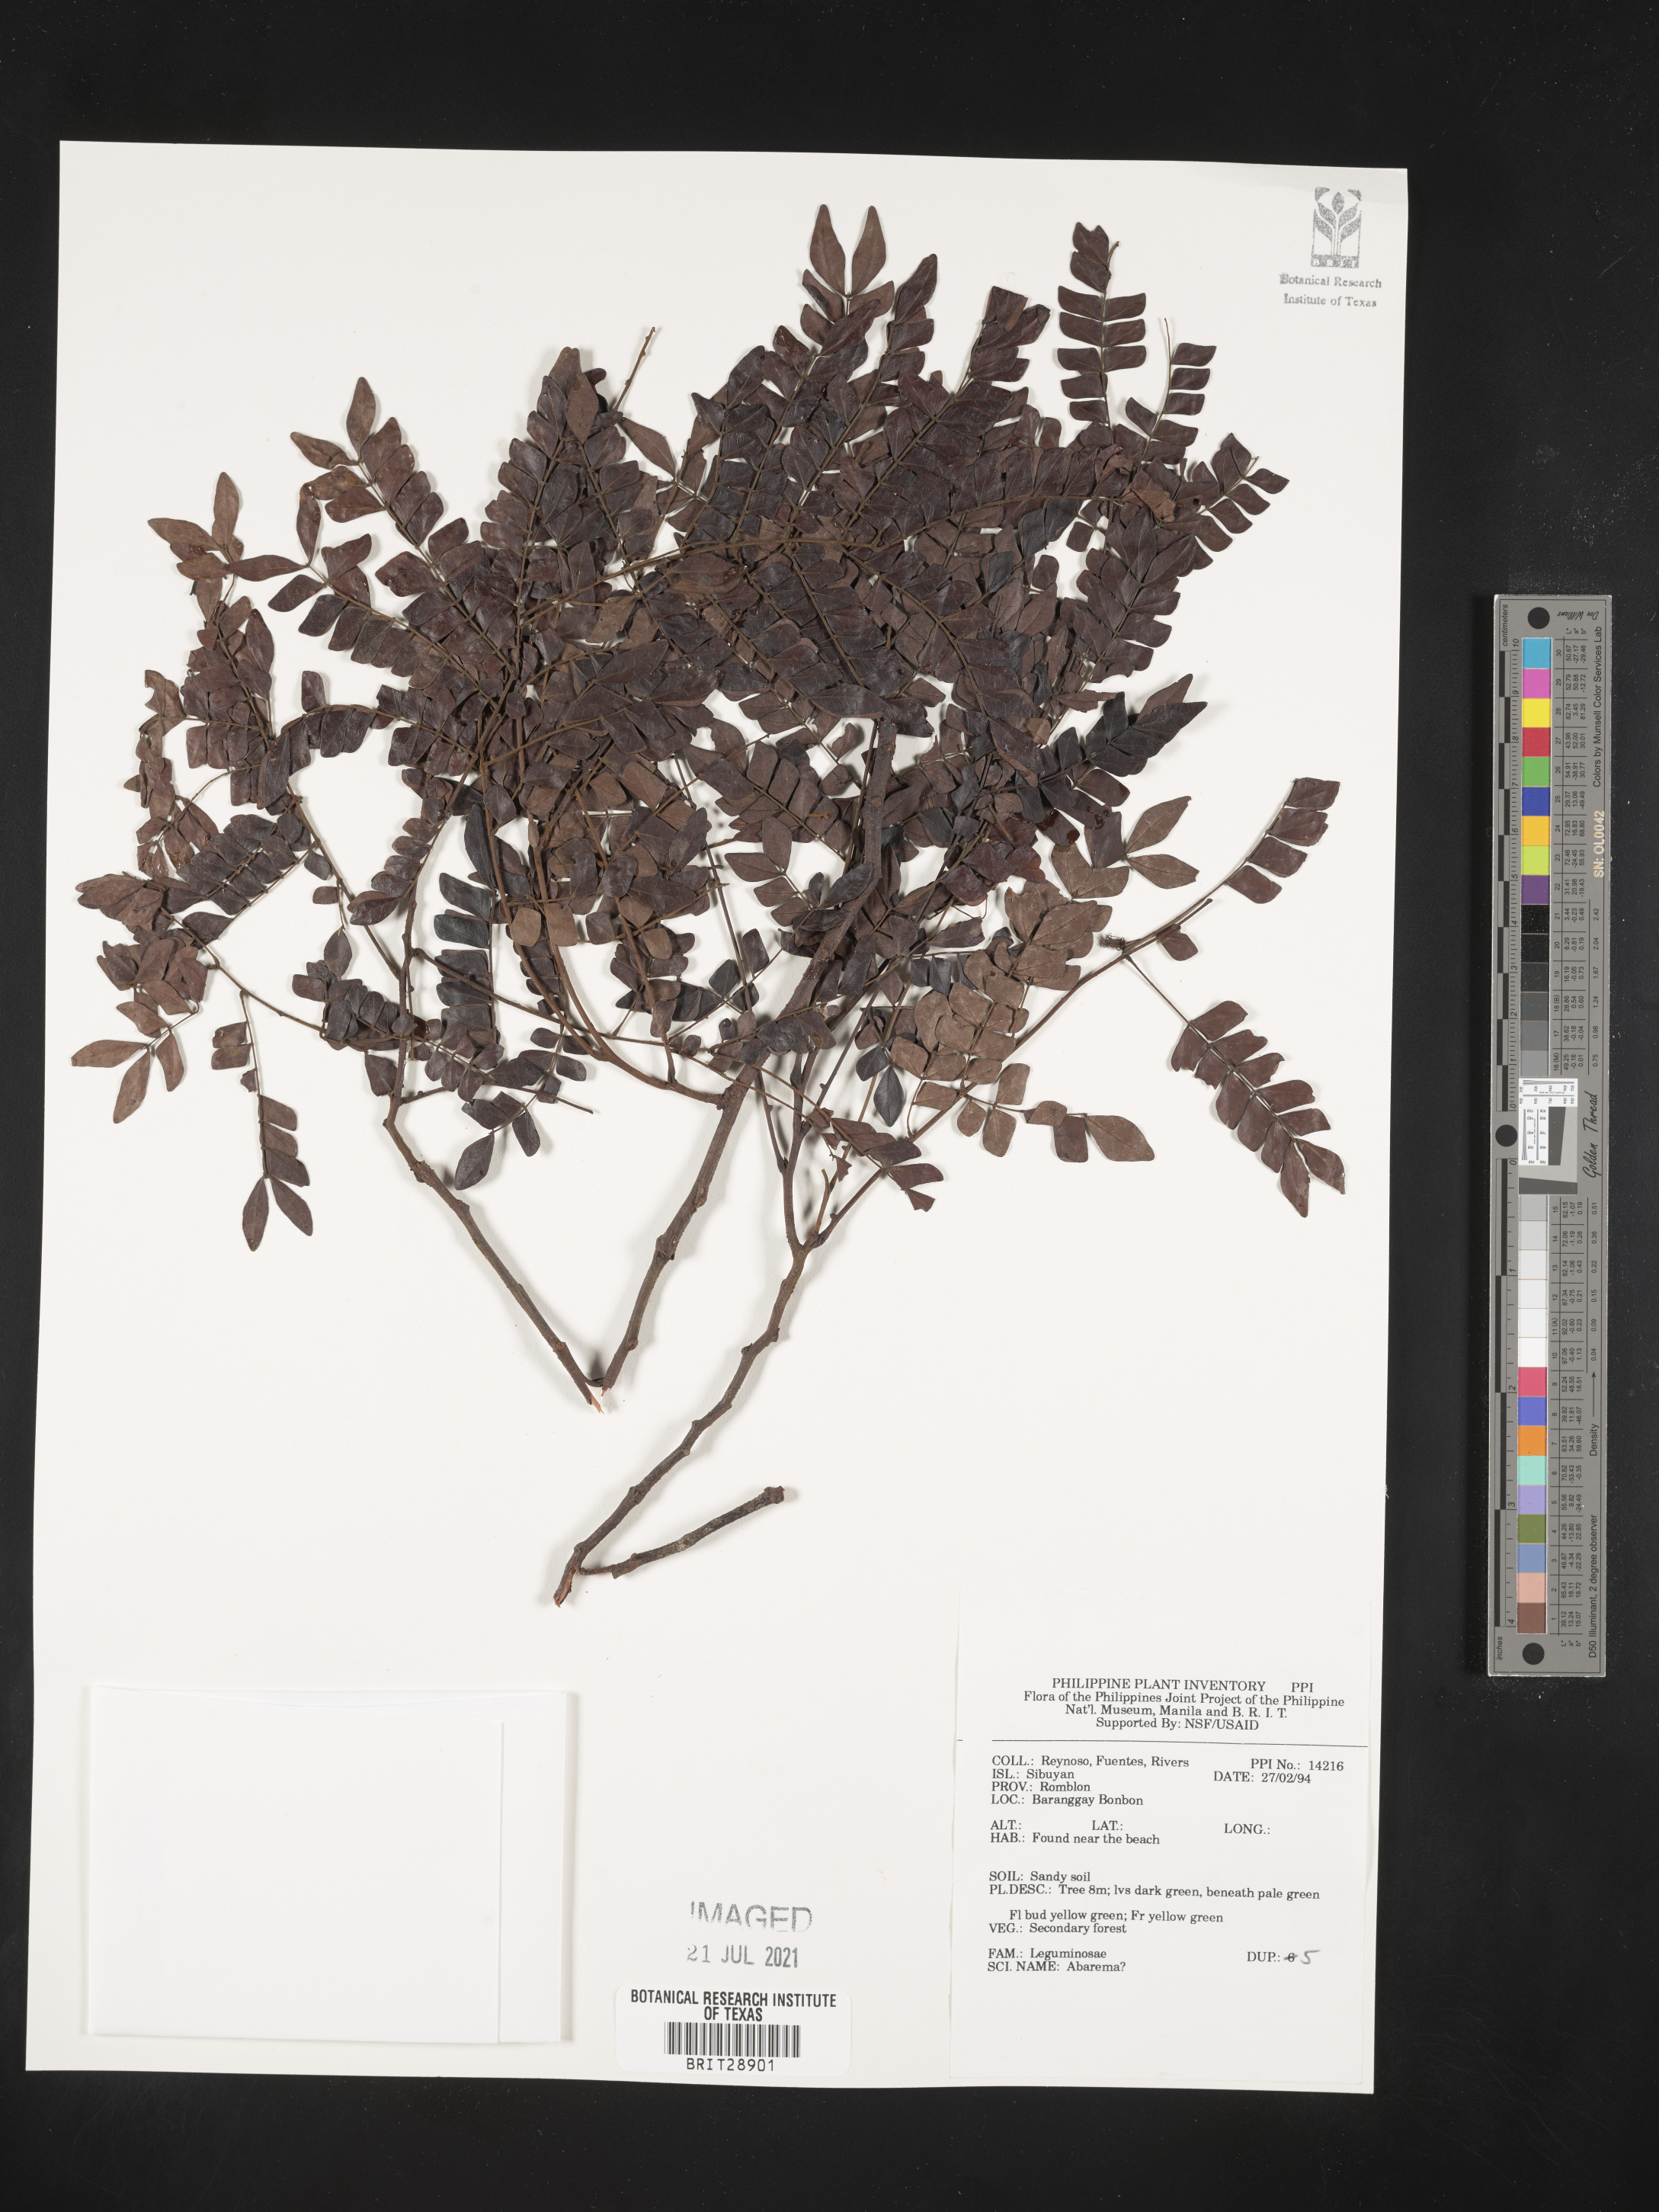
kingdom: Plantae
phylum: Tracheophyta
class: Magnoliopsida
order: Fabales
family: Fabaceae
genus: Abarema
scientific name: Abarema
